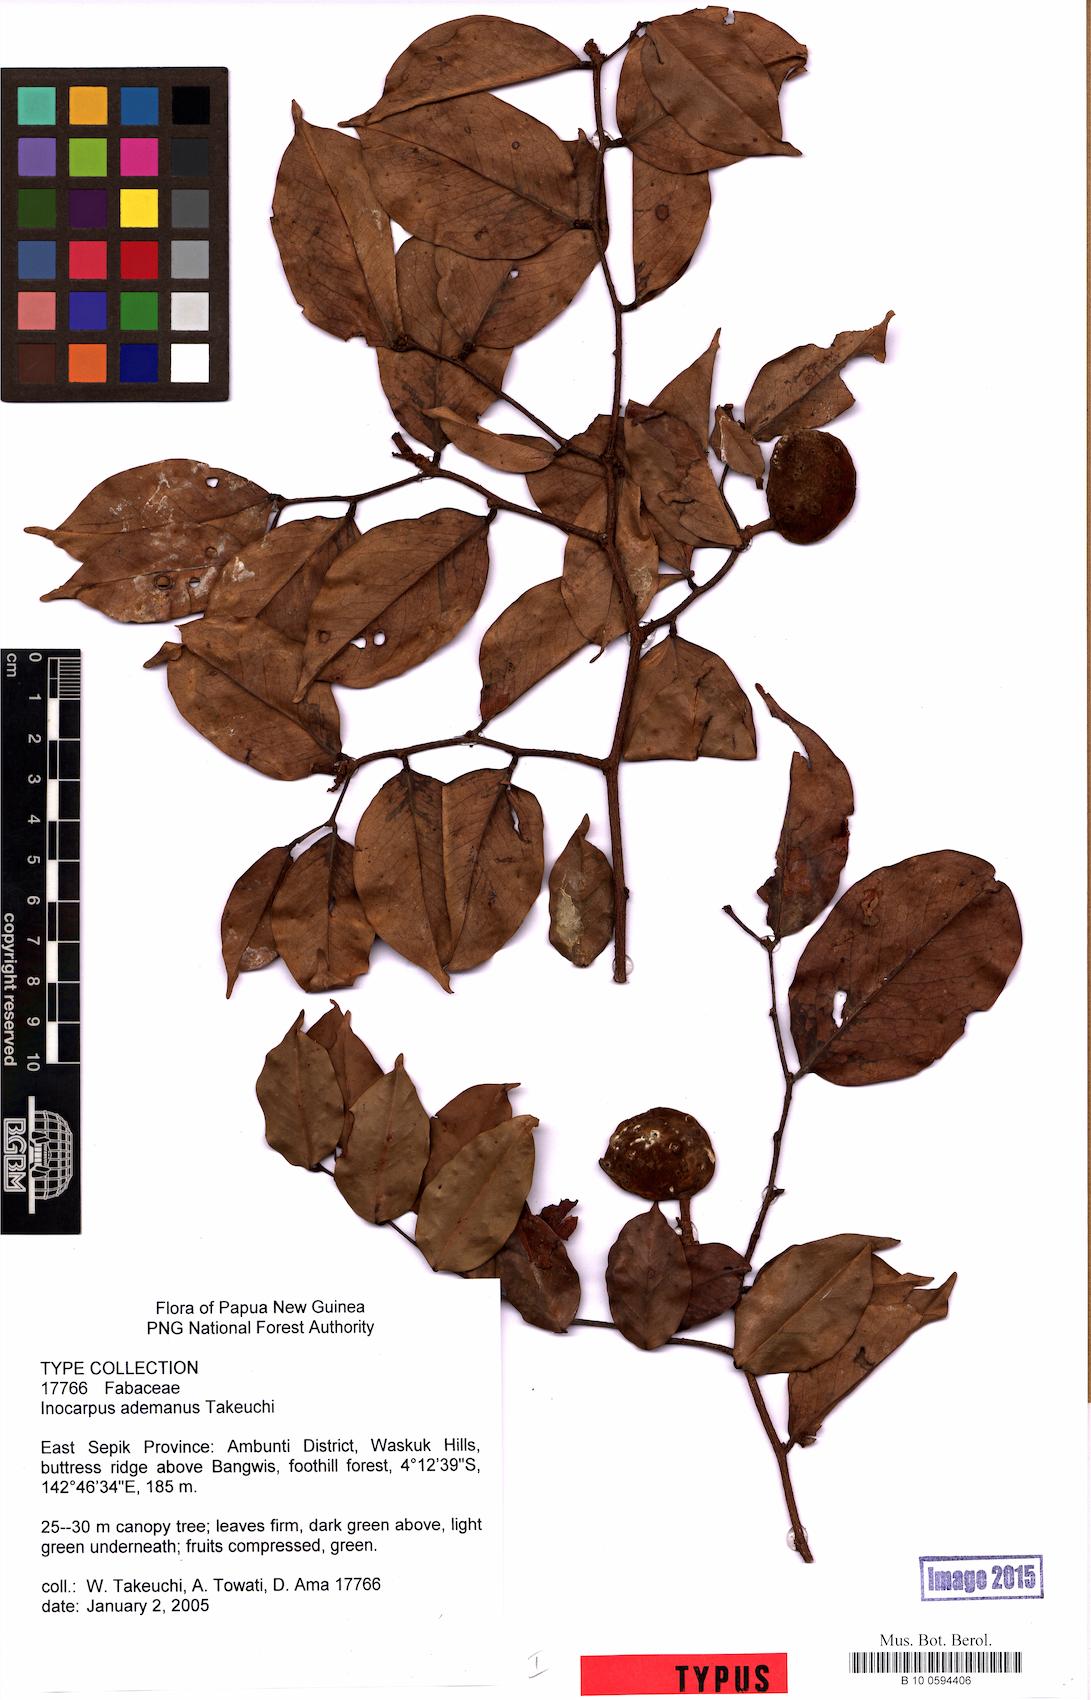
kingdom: Plantae
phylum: Tracheophyta
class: Magnoliopsida
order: Fabales
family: Fabaceae
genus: Inocarpus
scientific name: Inocarpus ademanus
